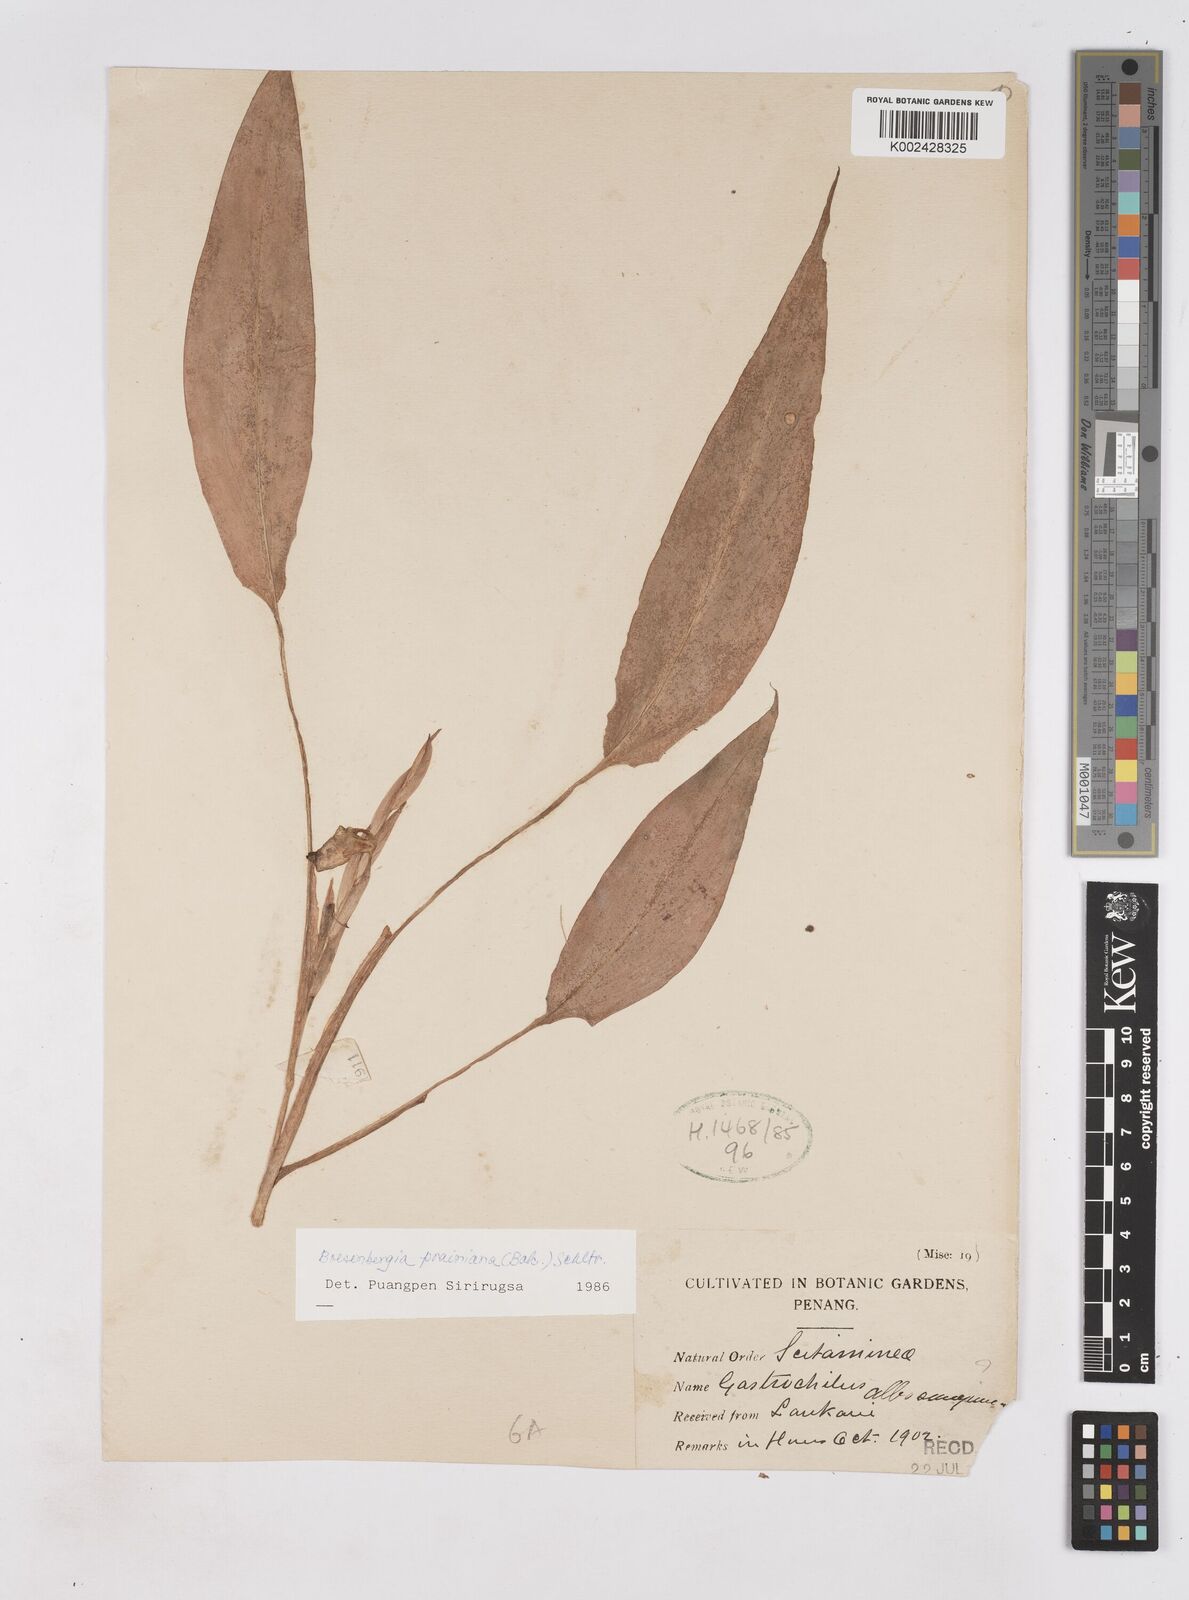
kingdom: Plantae
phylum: Tracheophyta
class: Liliopsida
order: Zingiberales
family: Zingiberaceae
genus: Boesenbergia
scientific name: Boesenbergia prainiana
